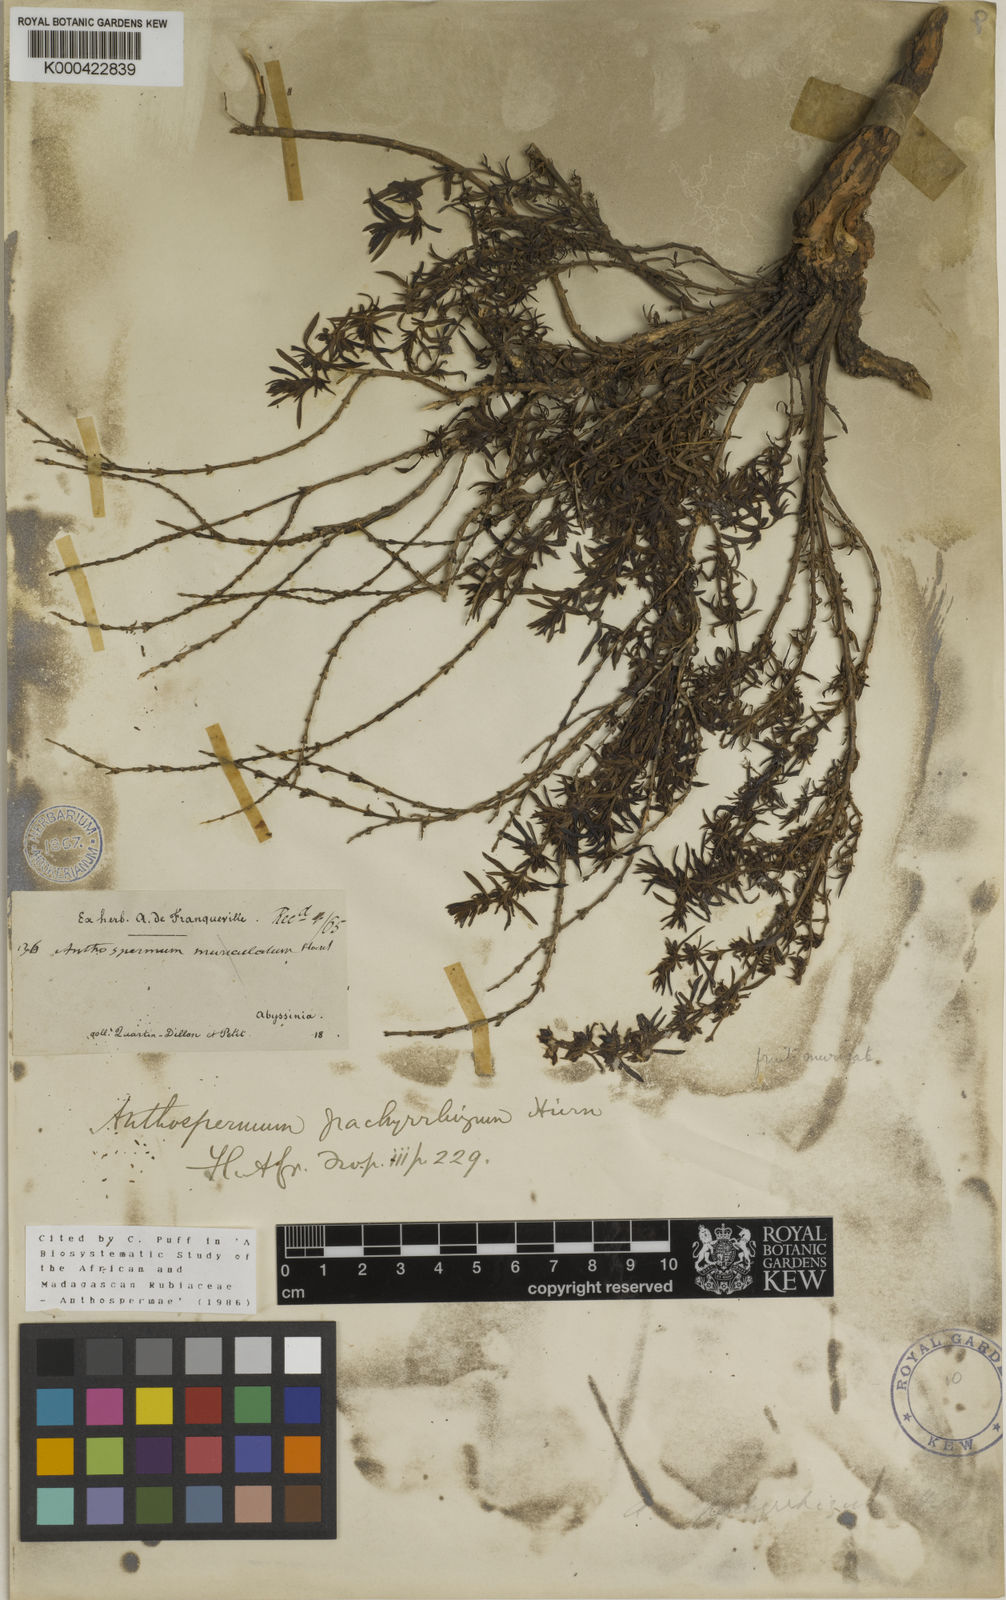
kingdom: Plantae
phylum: Tracheophyta
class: Magnoliopsida
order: Gentianales
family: Rubiaceae
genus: Anthospermum
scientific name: Anthospermum pachyrrhizum
